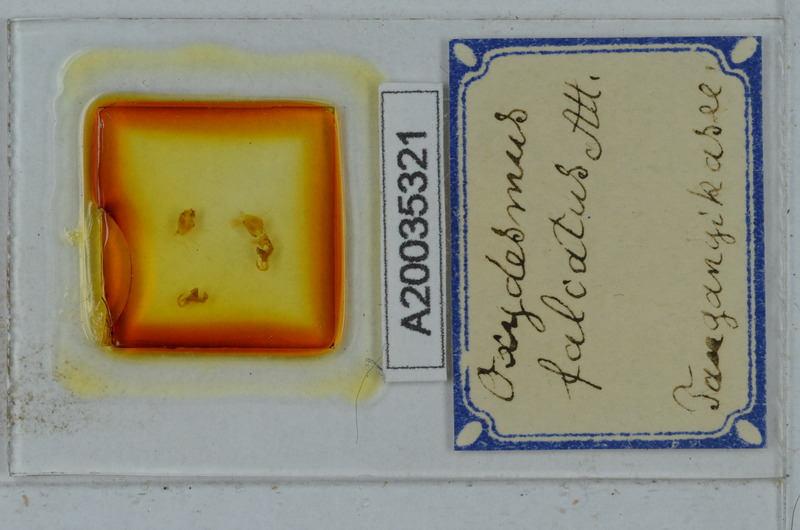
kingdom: Animalia
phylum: Arthropoda
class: Diplopoda
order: Polydesmida
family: Oxydesmidae
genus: Oreiadessa
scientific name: Oreiadessa falcata
